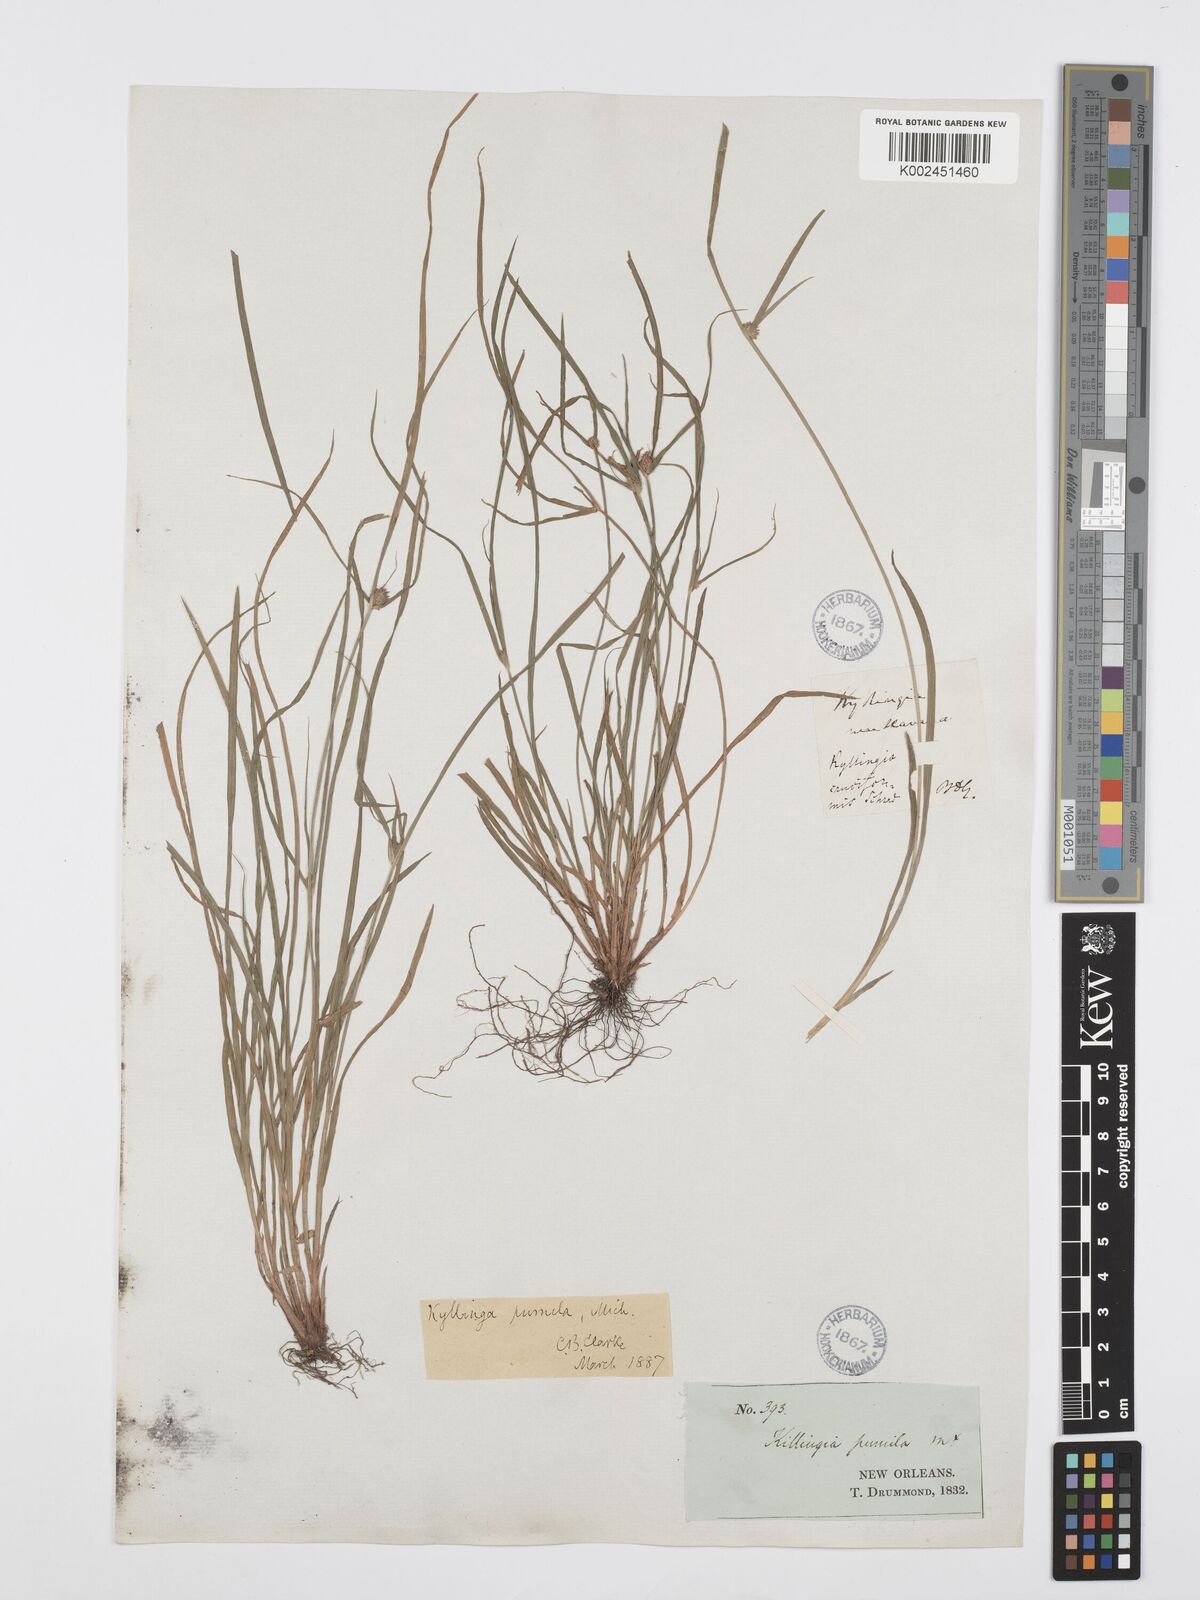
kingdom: Plantae
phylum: Tracheophyta
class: Liliopsida
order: Poales
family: Cyperaceae
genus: Cyperus
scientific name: Cyperus
